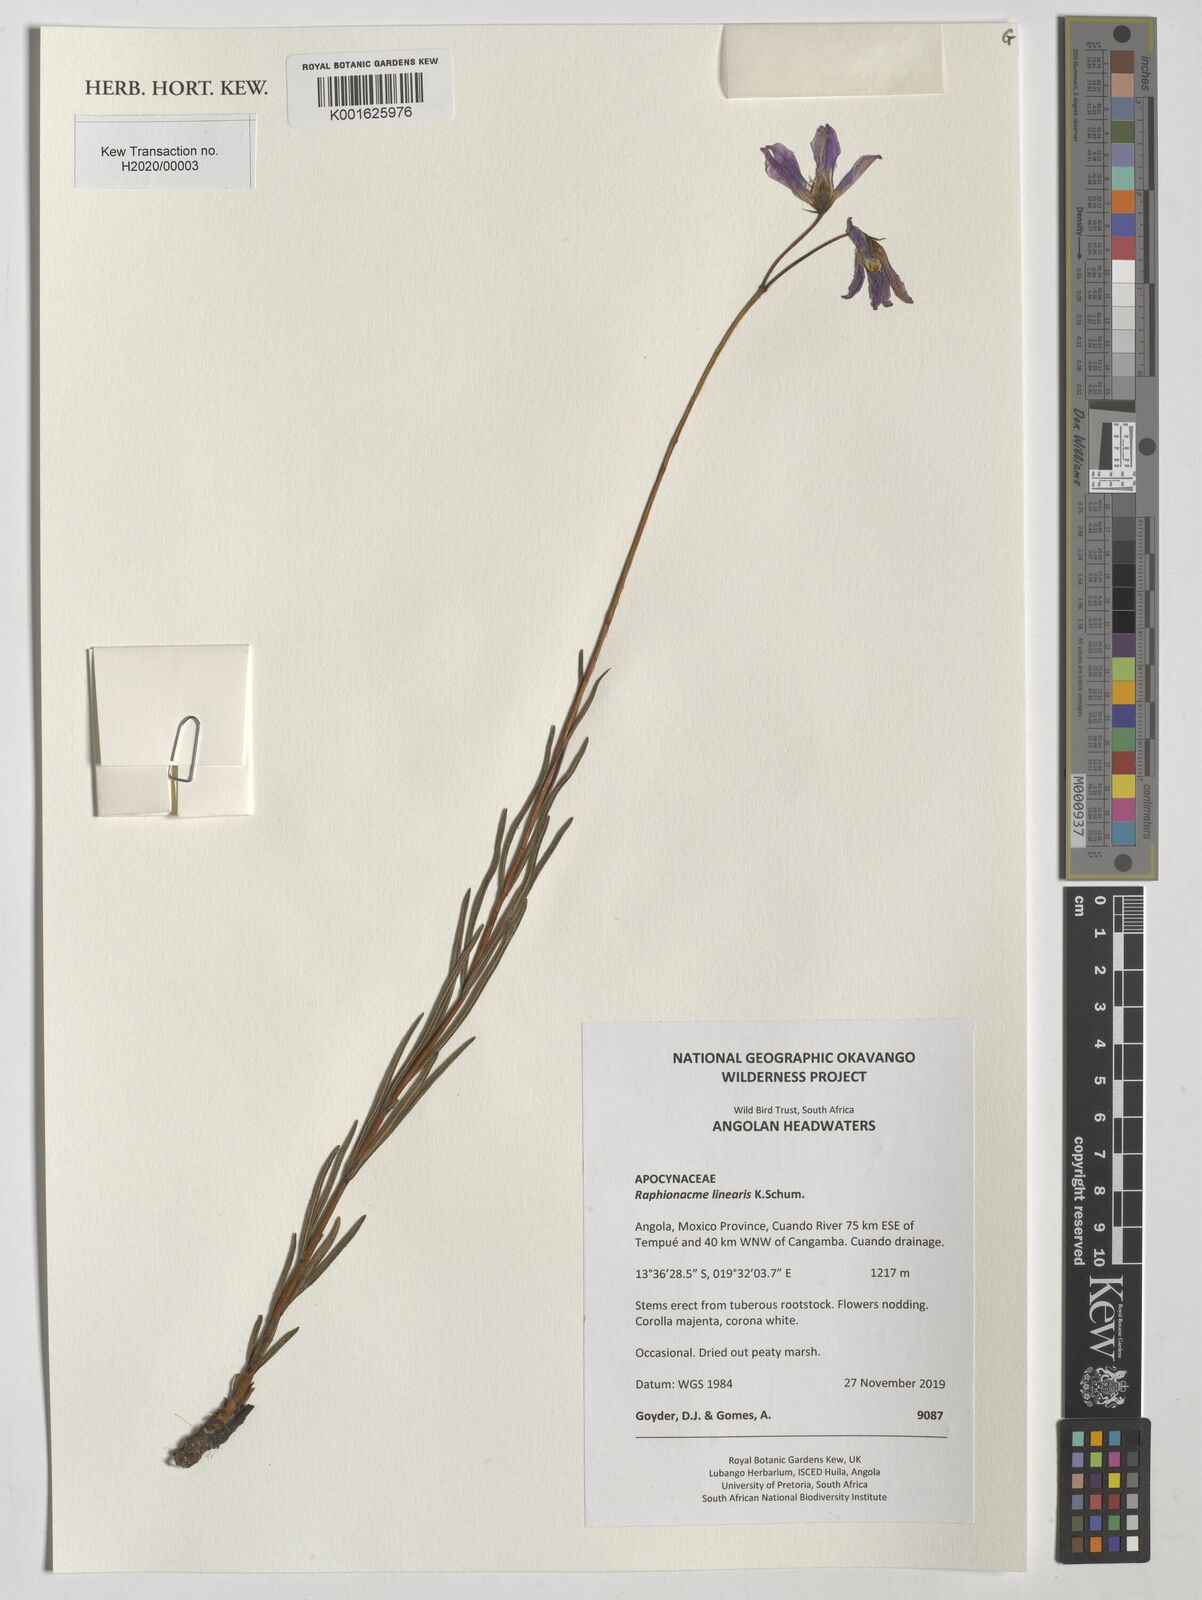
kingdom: Plantae
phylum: Tracheophyta
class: Magnoliopsida
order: Gentianales
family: Apocynaceae
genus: Raphionacme
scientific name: Raphionacme linearis
